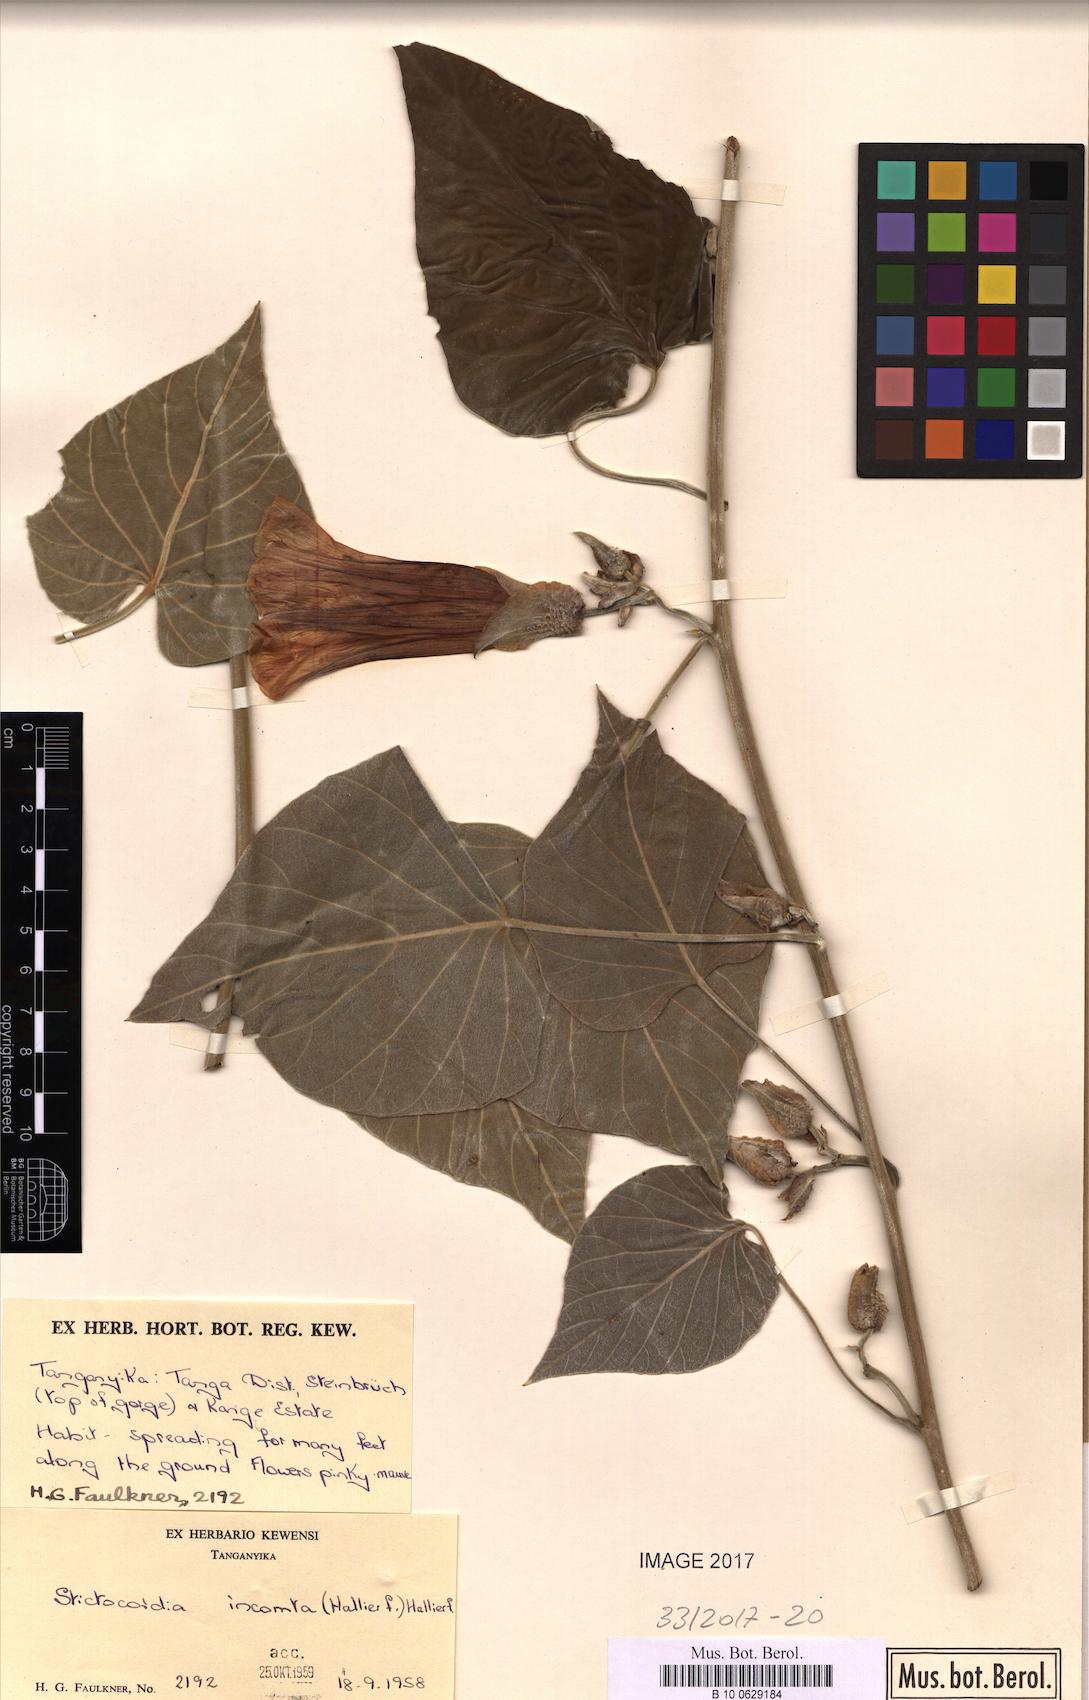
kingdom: Plantae
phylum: Tracheophyta
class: Magnoliopsida
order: Solanales
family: Convolvulaceae
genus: Stictocardia
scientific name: Stictocardia incomta
